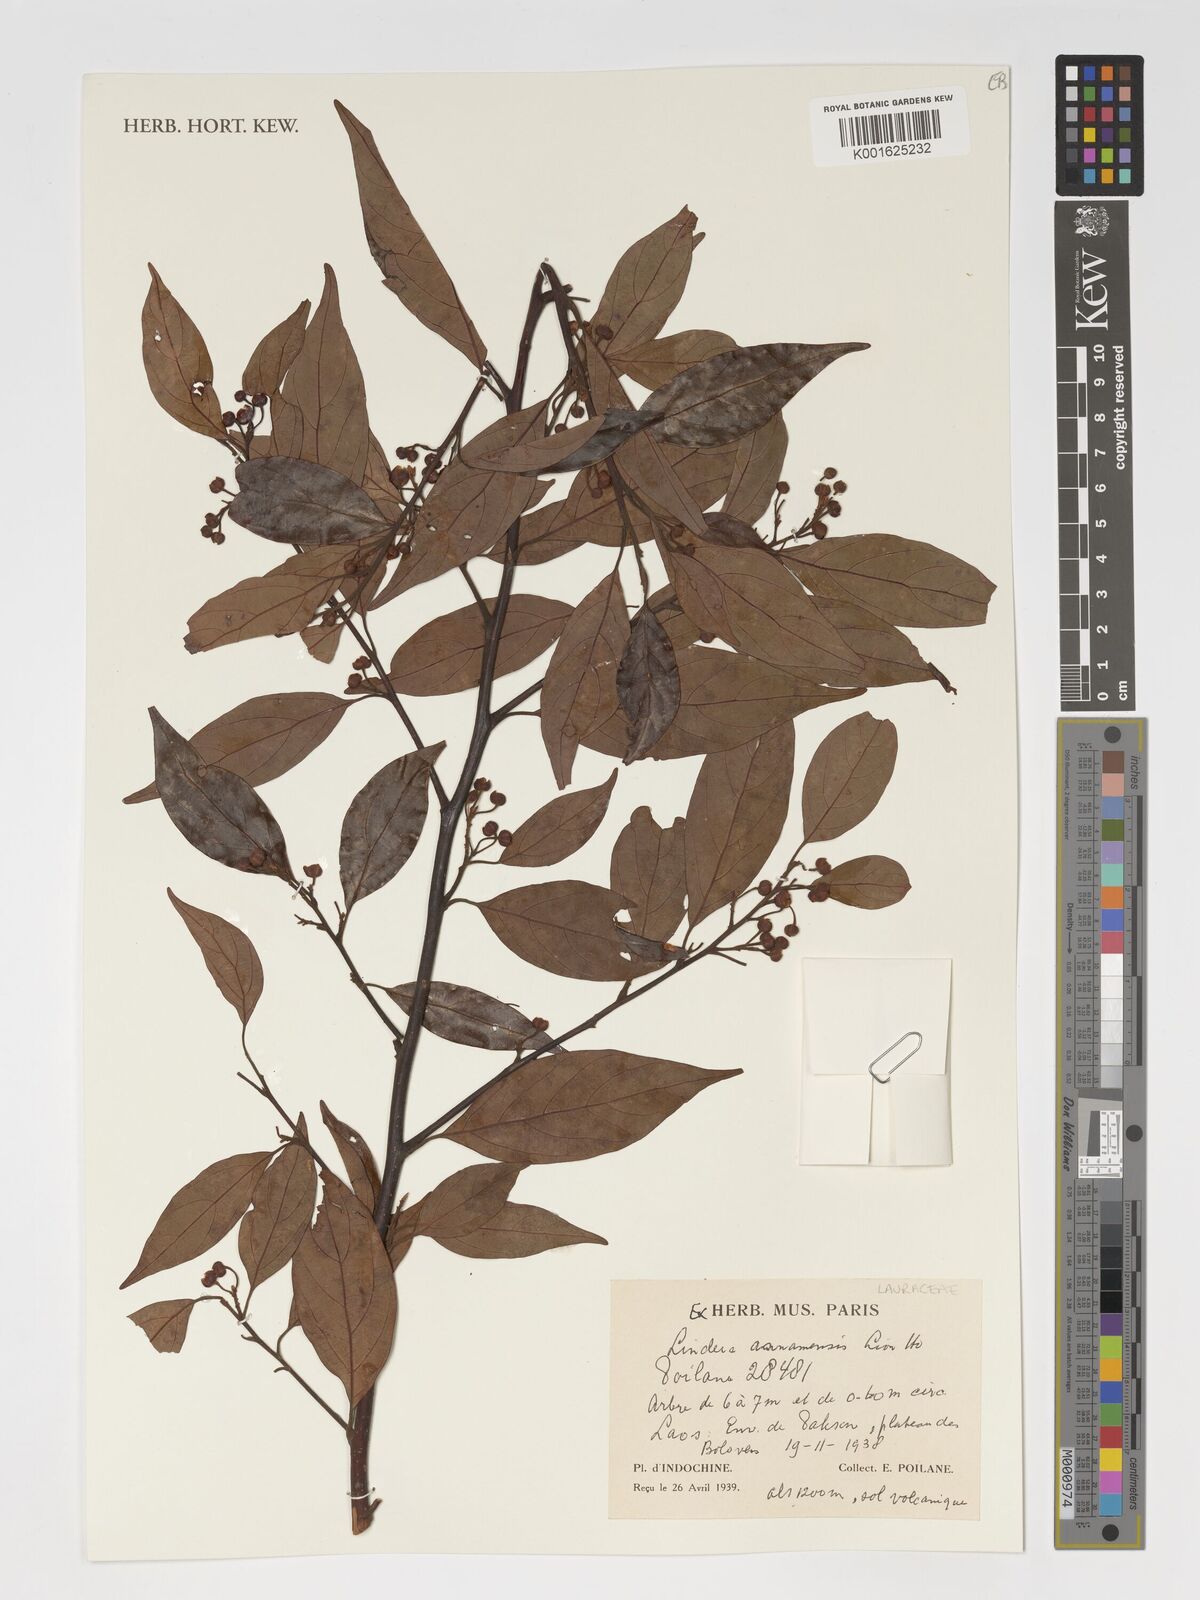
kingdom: Plantae
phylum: Tracheophyta
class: Magnoliopsida
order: Laurales
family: Lauraceae
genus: Lindera
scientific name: Lindera annamensis
